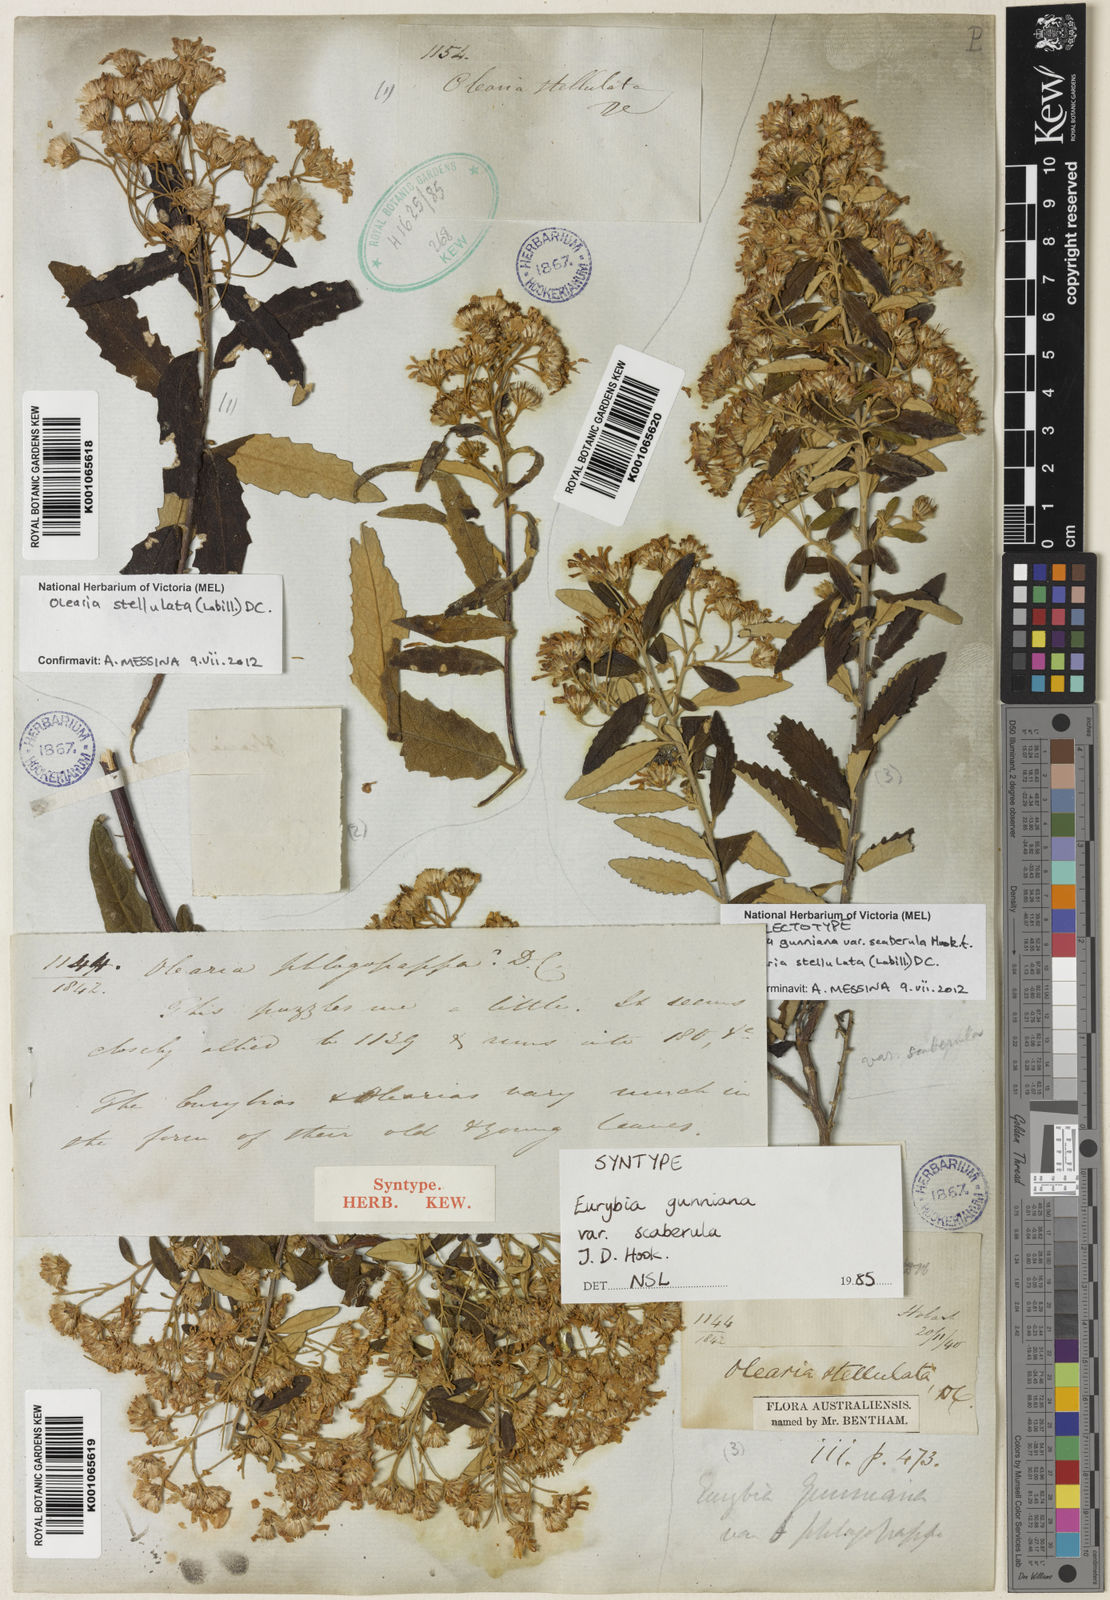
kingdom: Plantae
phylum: Tracheophyta
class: Magnoliopsida
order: Asterales
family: Asteraceae
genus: Olearia
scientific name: Olearia phlogopappa
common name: Alpine daisybush
